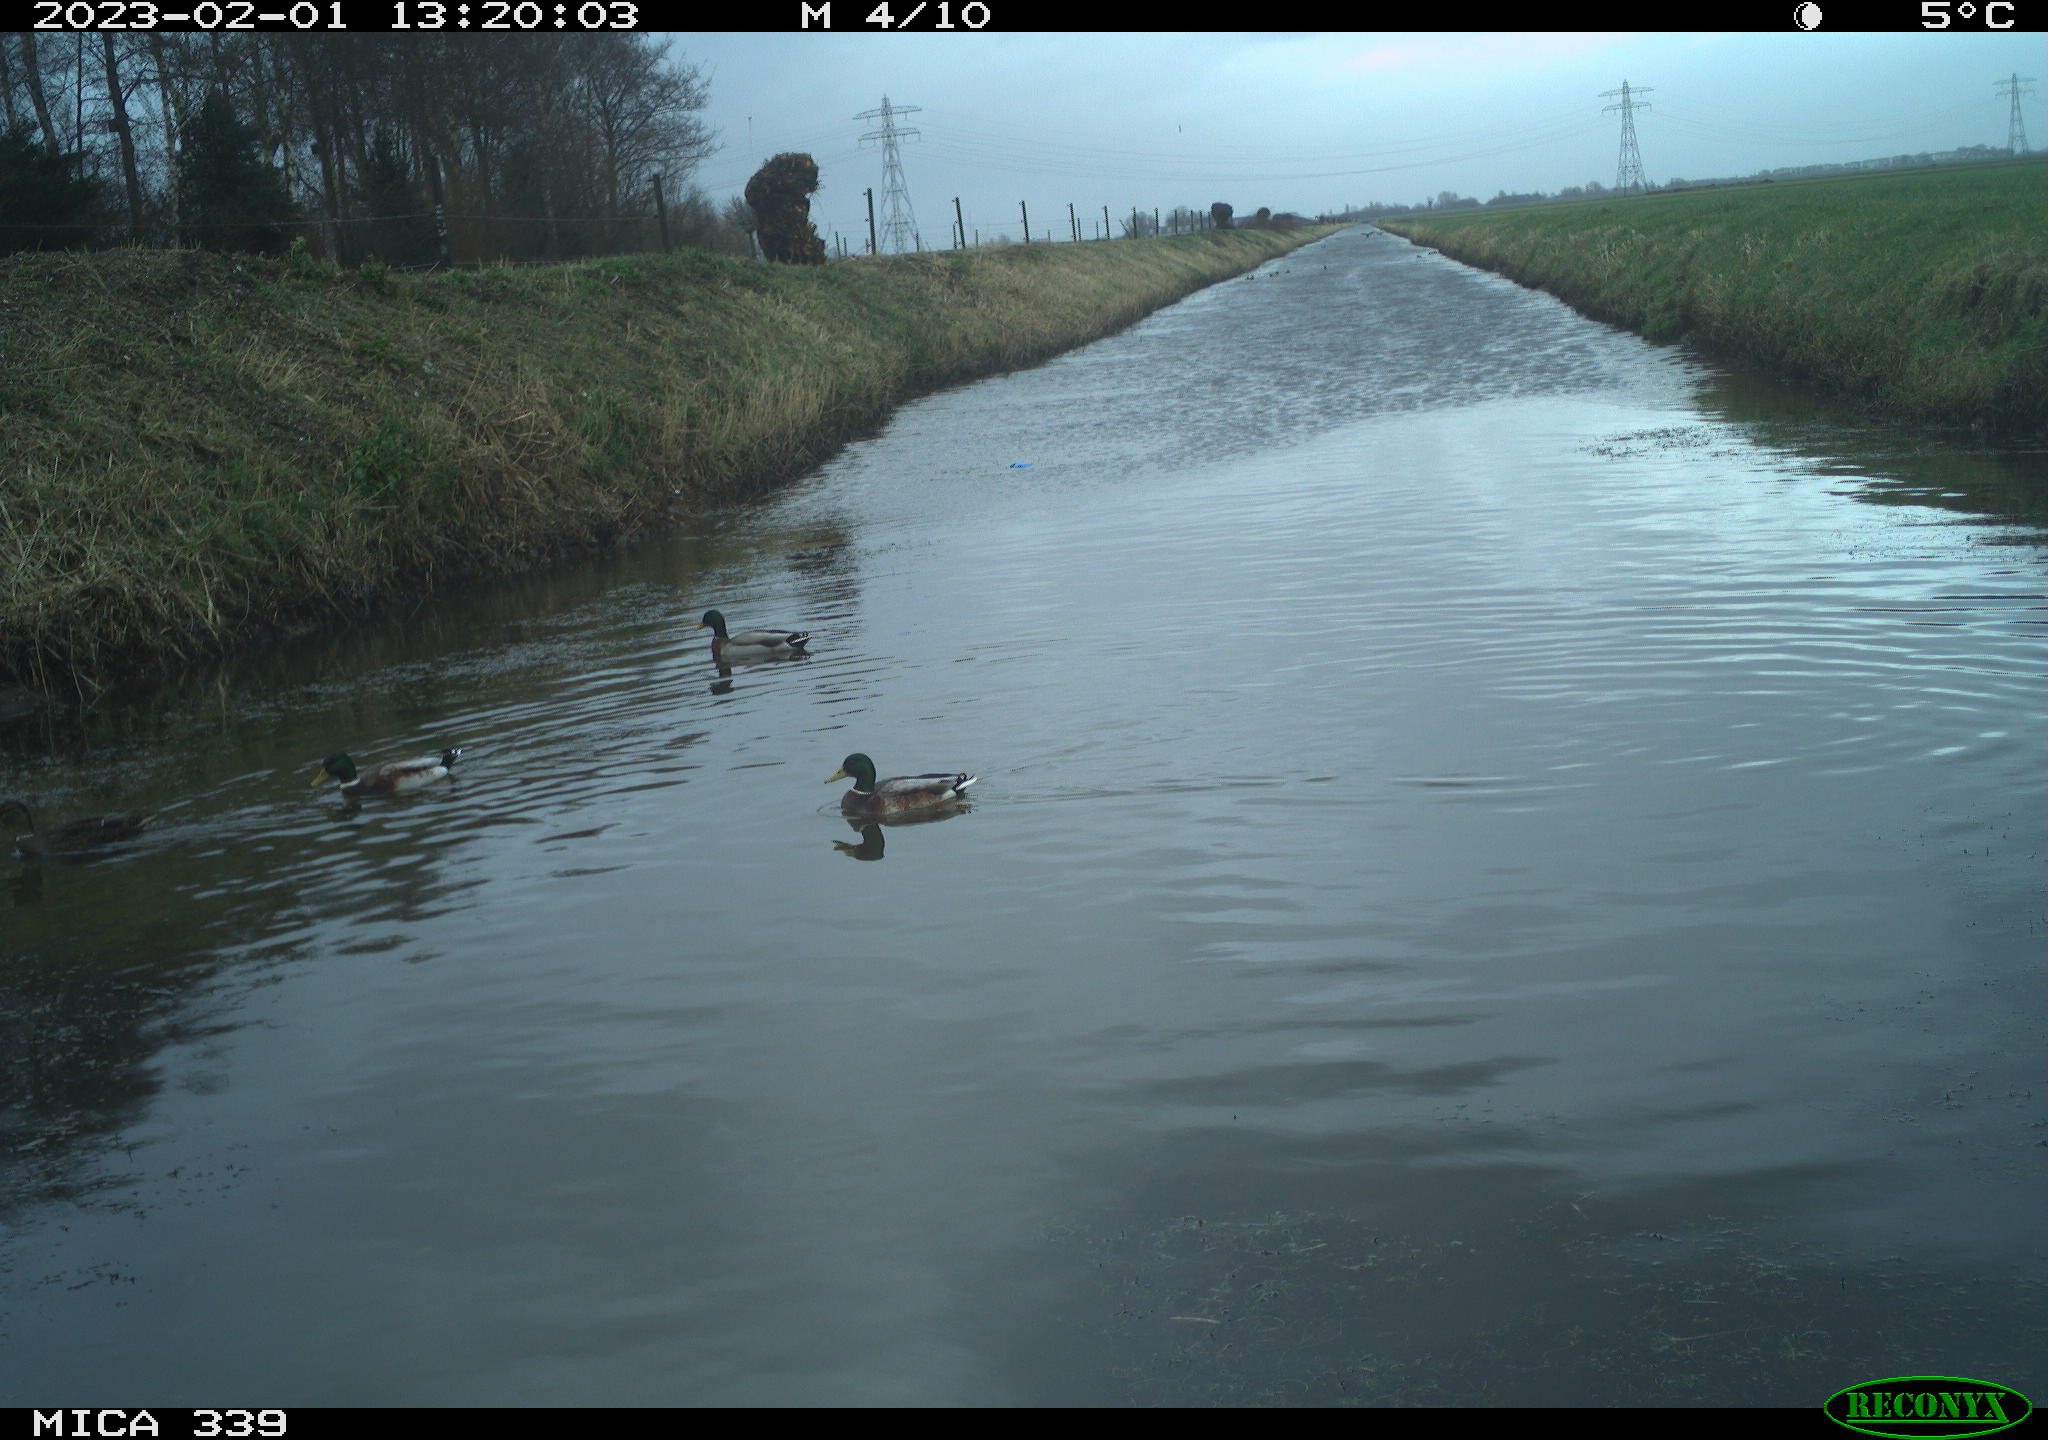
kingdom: Animalia
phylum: Chordata
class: Aves
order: Anseriformes
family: Anatidae
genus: Anas
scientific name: Anas
